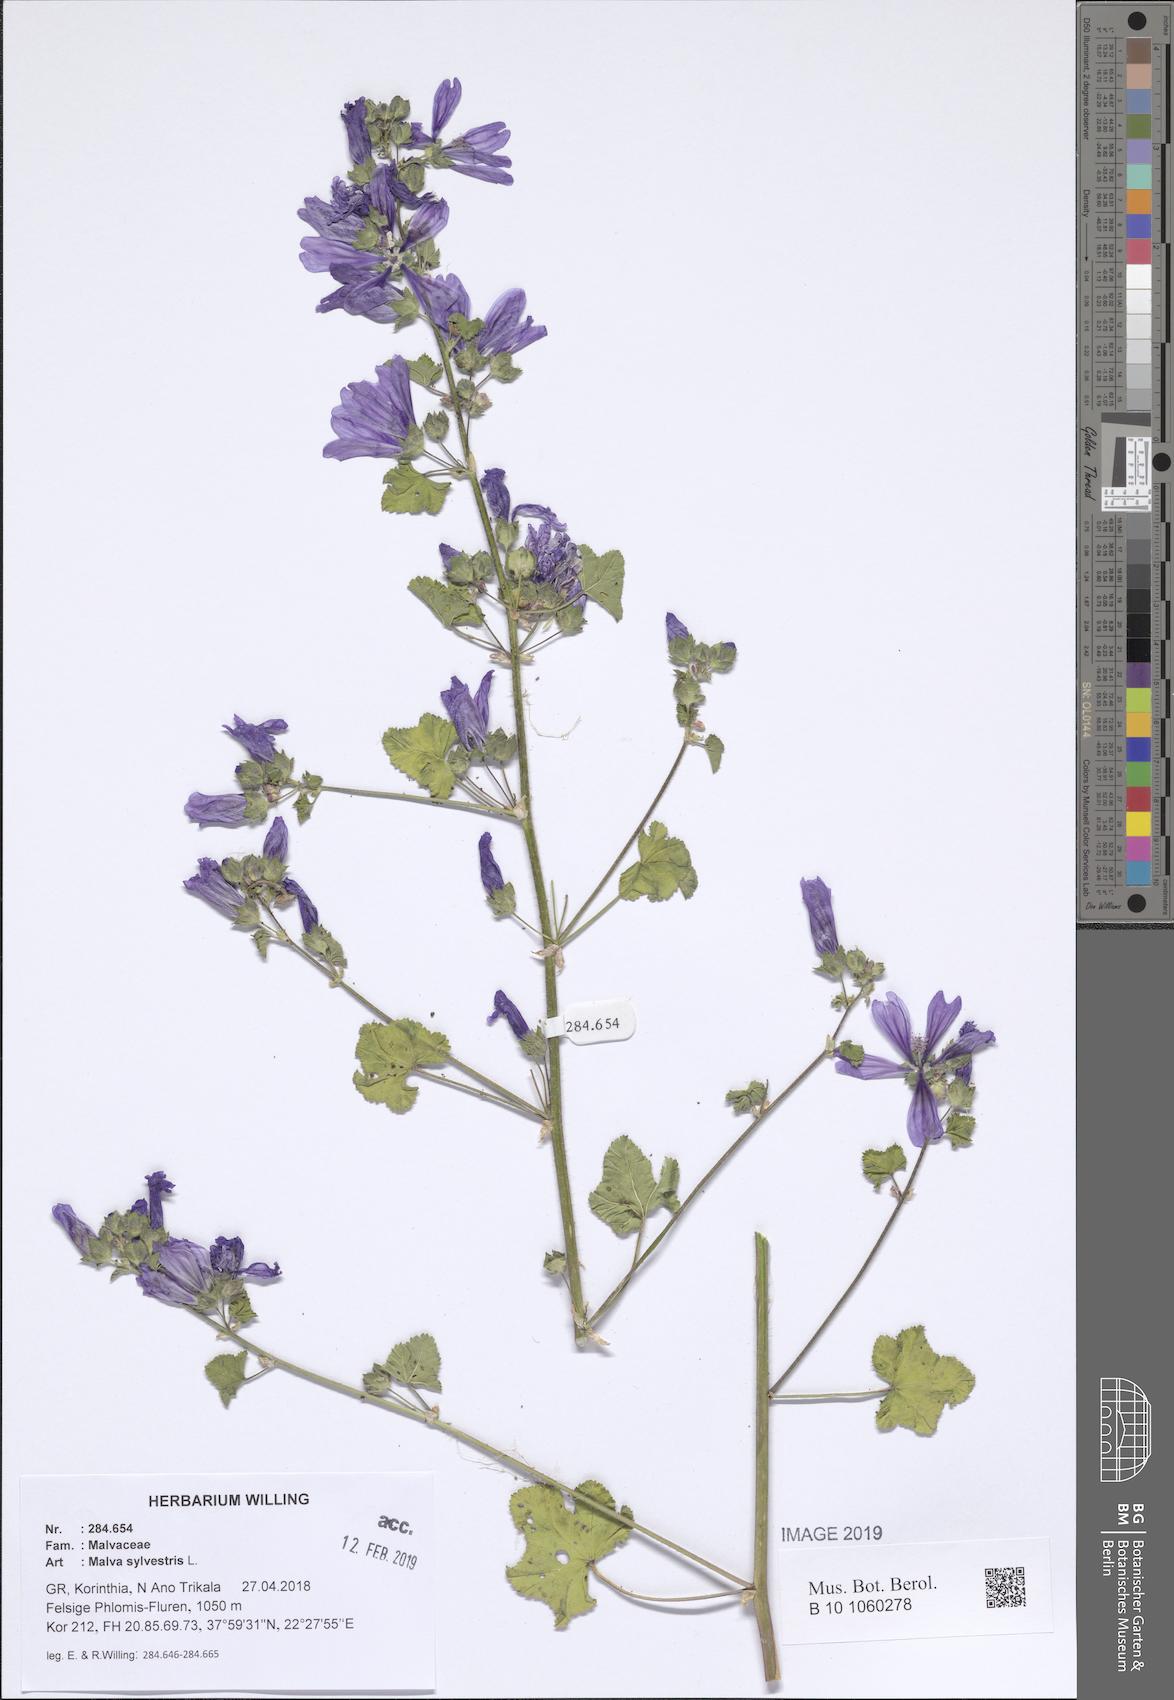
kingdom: Plantae
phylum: Tracheophyta
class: Magnoliopsida
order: Malvales
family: Malvaceae
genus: Malva
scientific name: Malva sylvestris
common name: Common mallow
